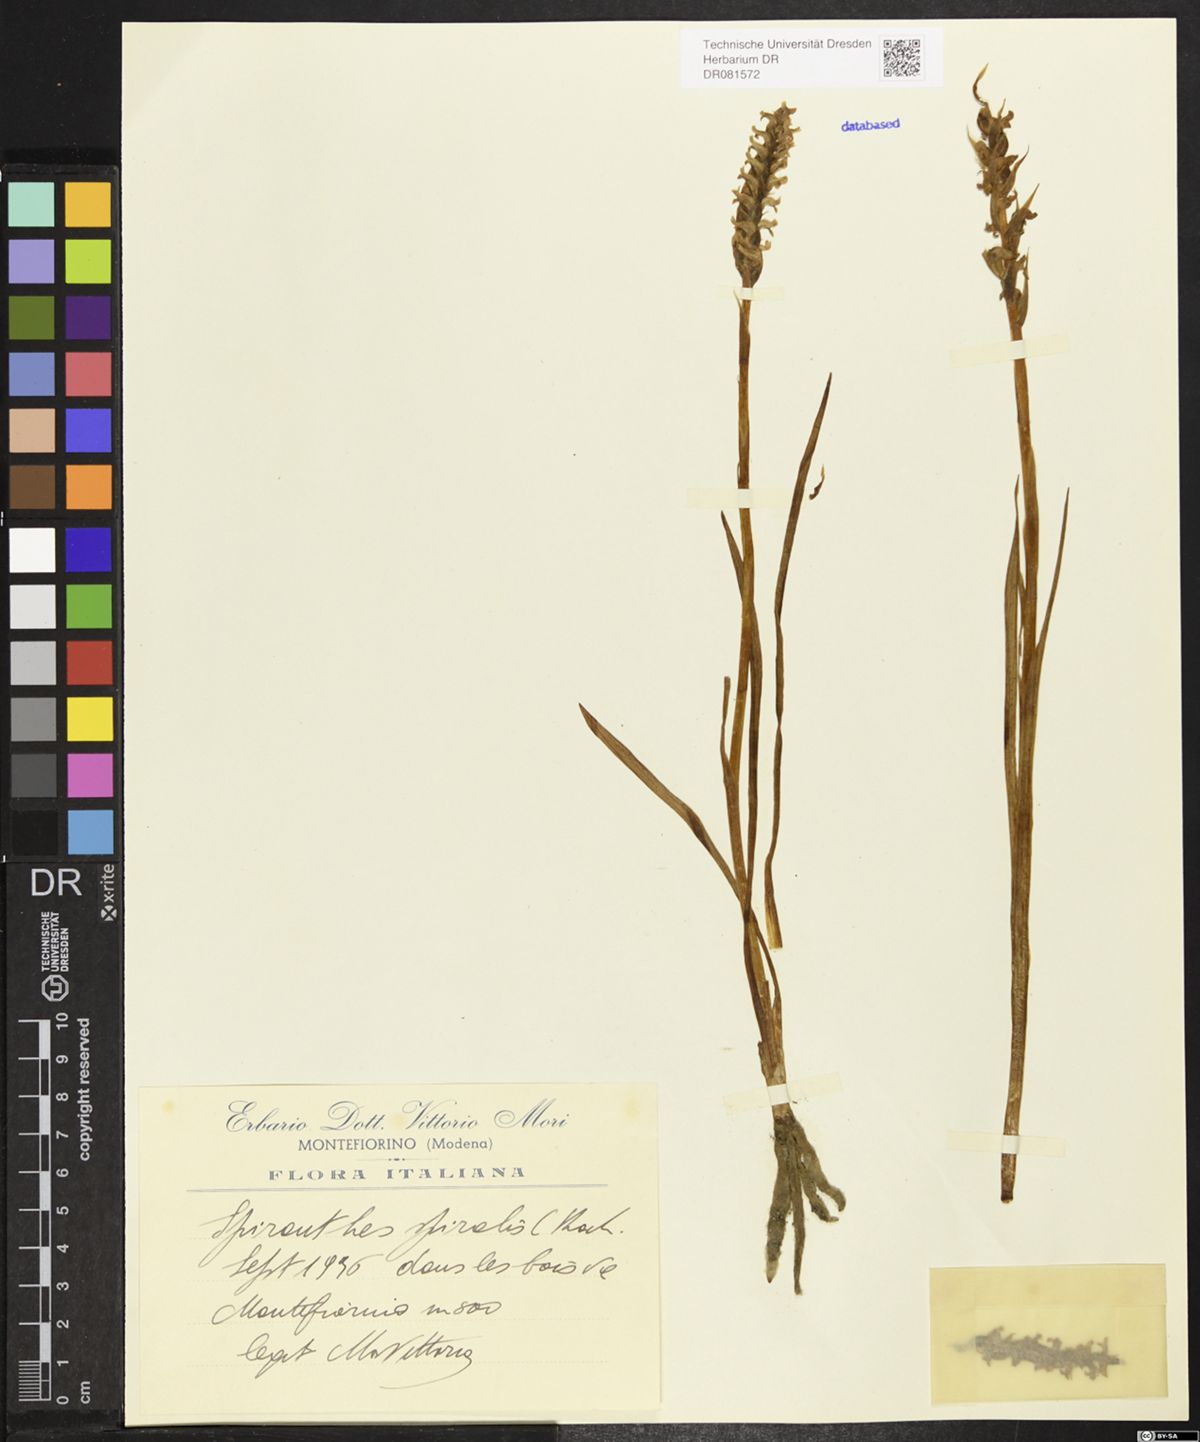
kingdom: Plantae
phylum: Tracheophyta
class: Liliopsida
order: Asparagales
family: Orchidaceae
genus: Spiranthes
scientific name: Spiranthes spiralis
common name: Autumn lady's-tresses
